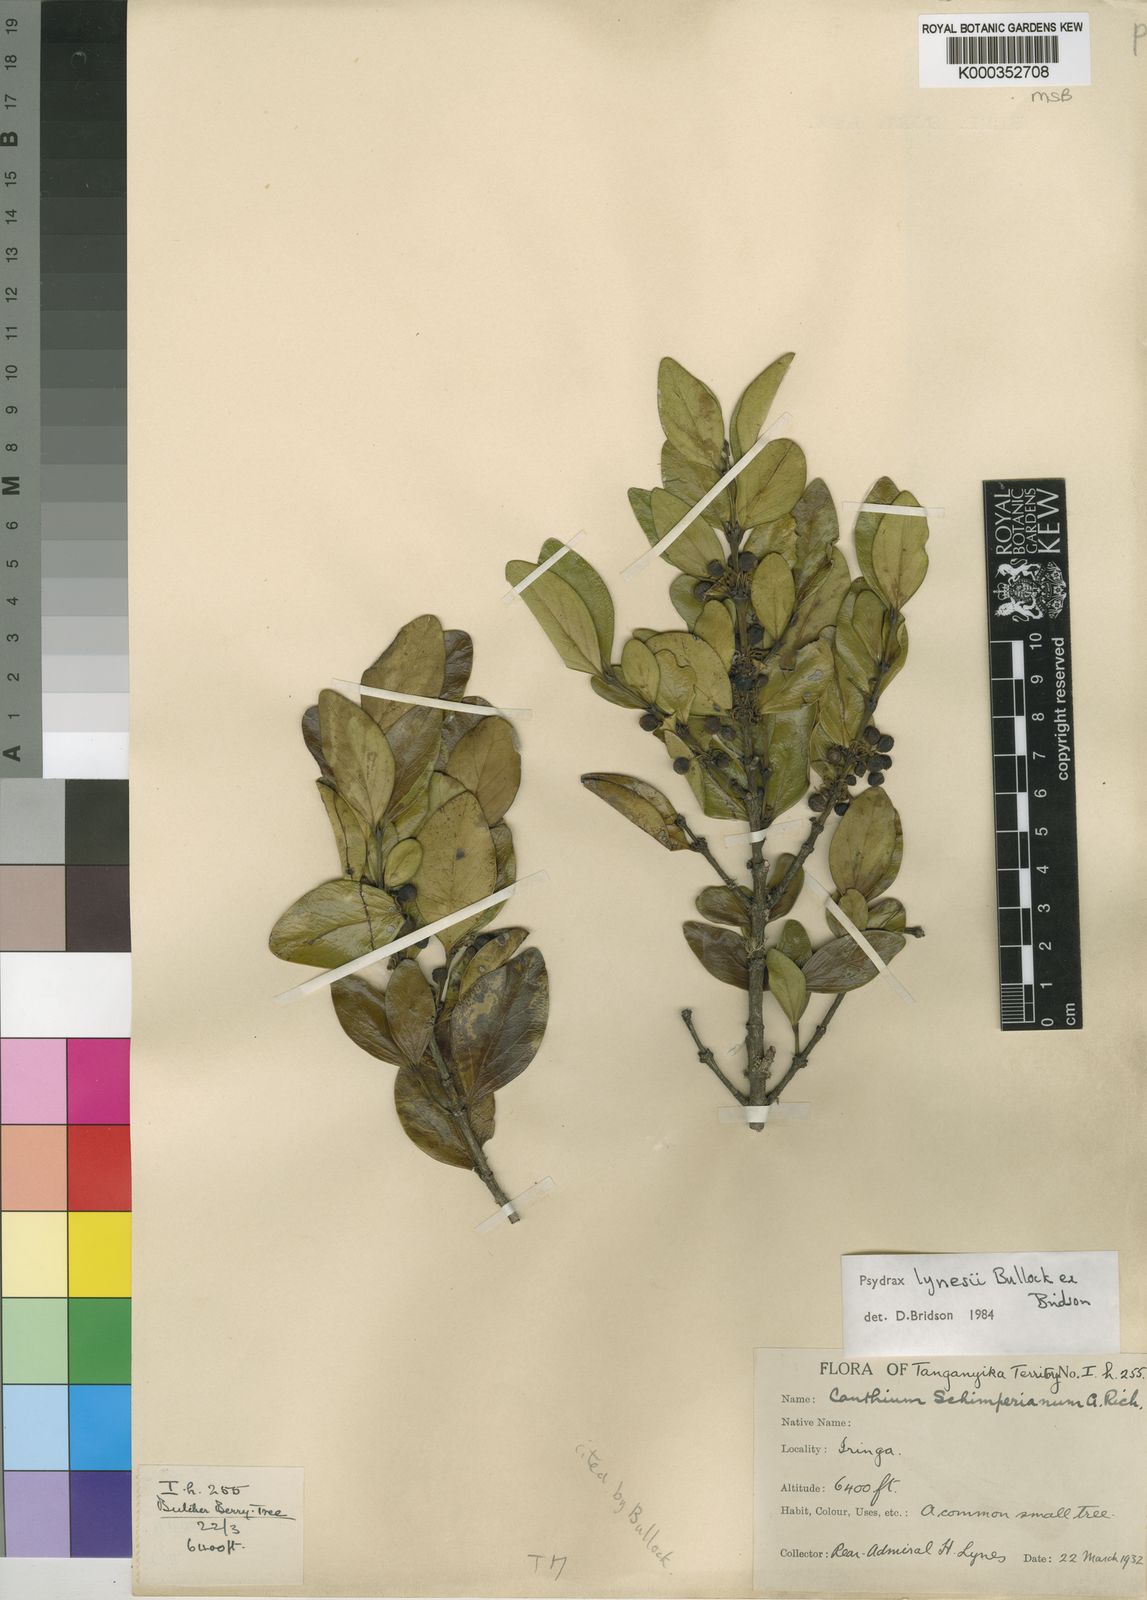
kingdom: Plantae
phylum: Tracheophyta
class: Magnoliopsida
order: Gentianales
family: Rubiaceae
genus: Psydrax
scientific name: Psydrax lynesii
